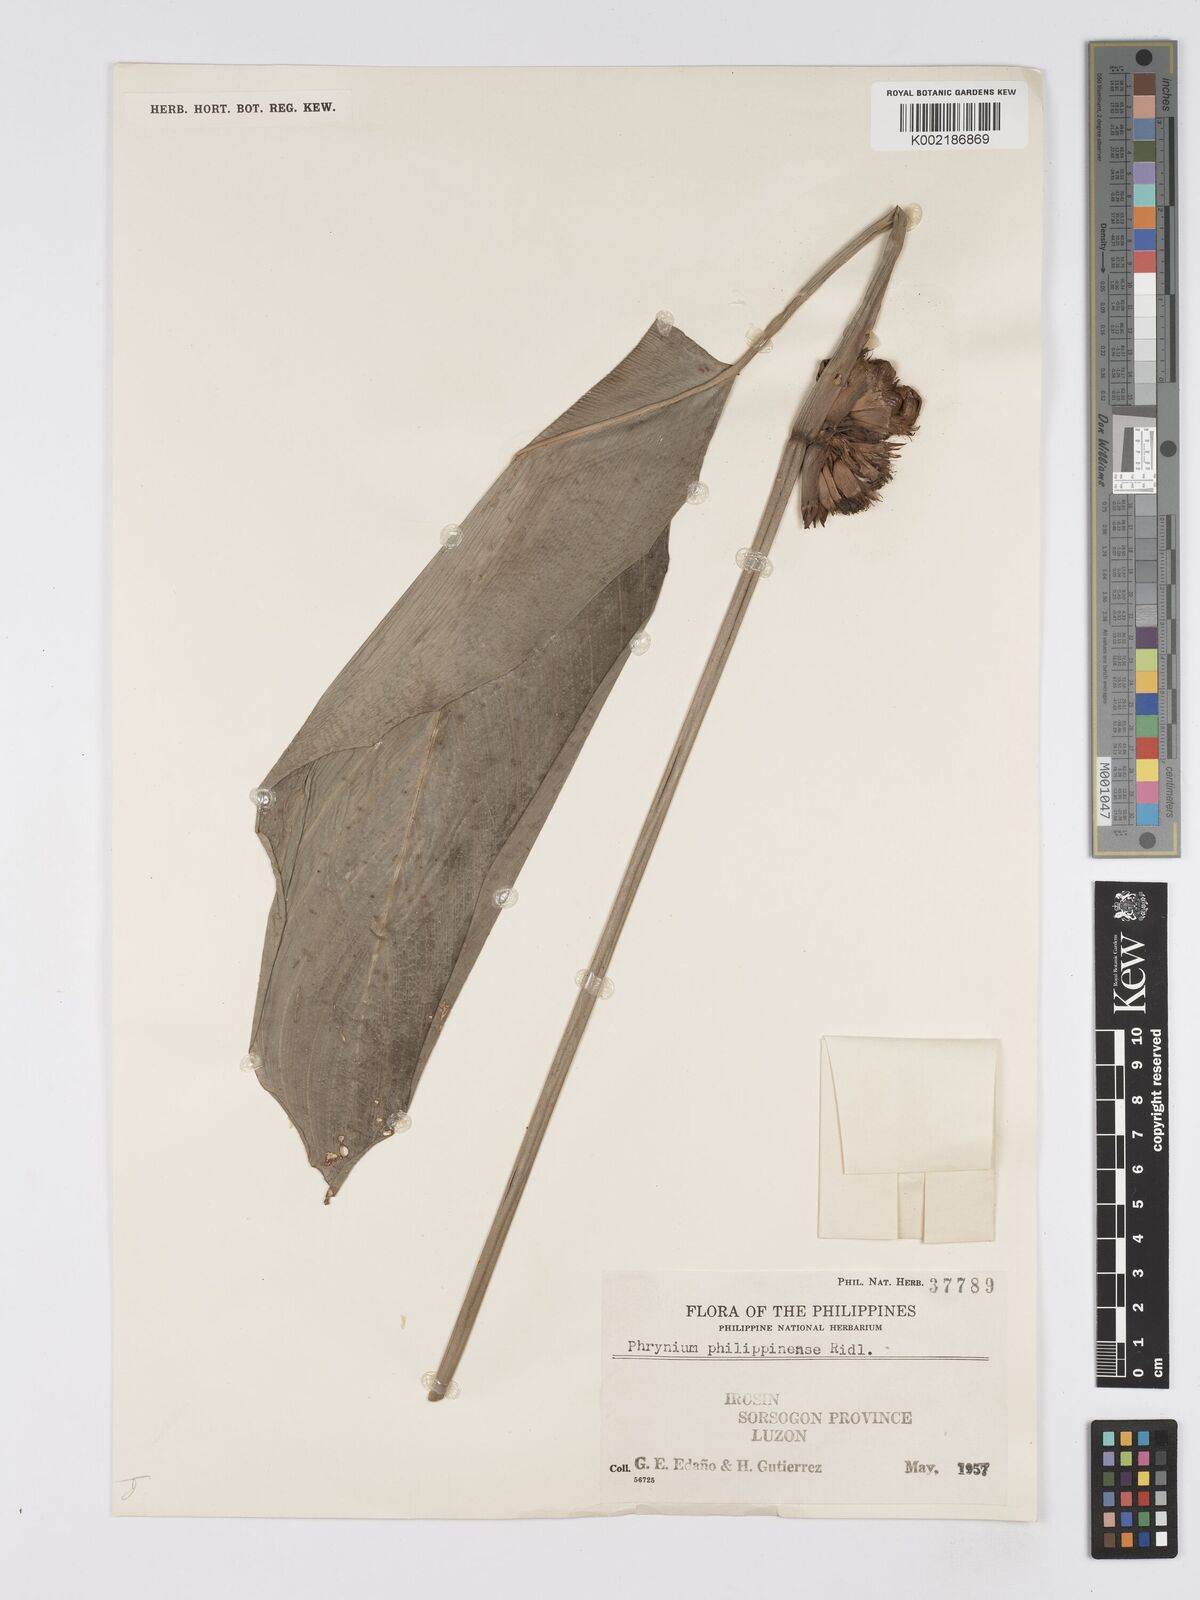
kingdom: Plantae
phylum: Tracheophyta
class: Liliopsida
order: Zingiberales
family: Marantaceae
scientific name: Marantaceae
